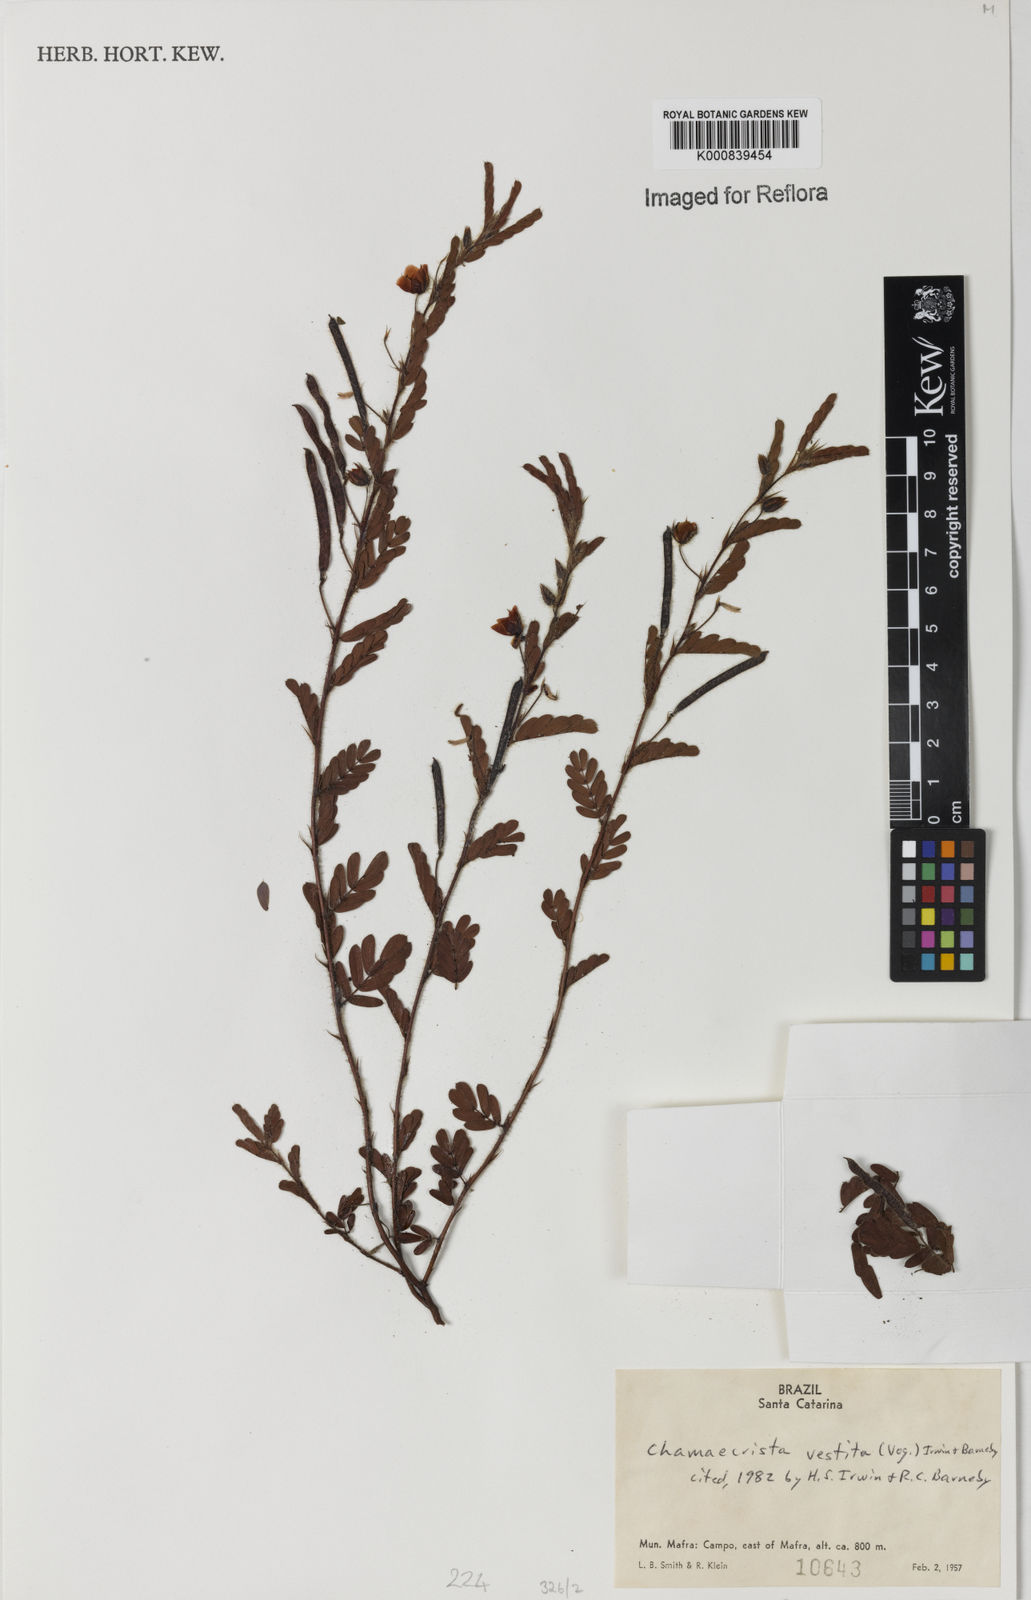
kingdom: Plantae
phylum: Tracheophyta
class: Magnoliopsida
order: Fabales
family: Fabaceae
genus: Chamaecrista
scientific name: Chamaecrista
